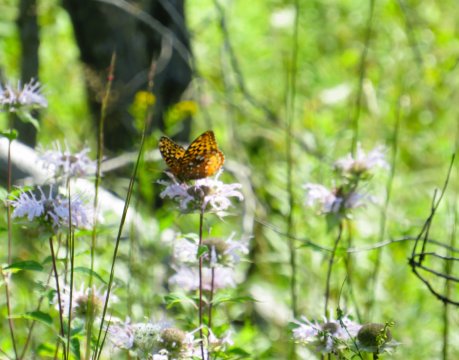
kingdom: Animalia
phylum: Arthropoda
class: Insecta
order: Lepidoptera
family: Nymphalidae
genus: Speyeria
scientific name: Speyeria cybele
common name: Great Spangled Fritillary
